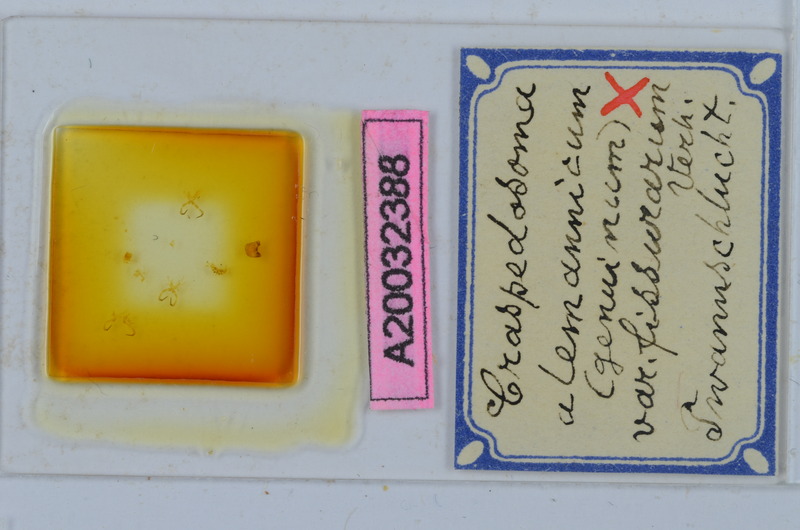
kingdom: Animalia
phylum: Arthropoda
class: Diplopoda
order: Chordeumatida
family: Craspedosomatidae
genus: Craspedosoma
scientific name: Craspedosoma rawlinsii
